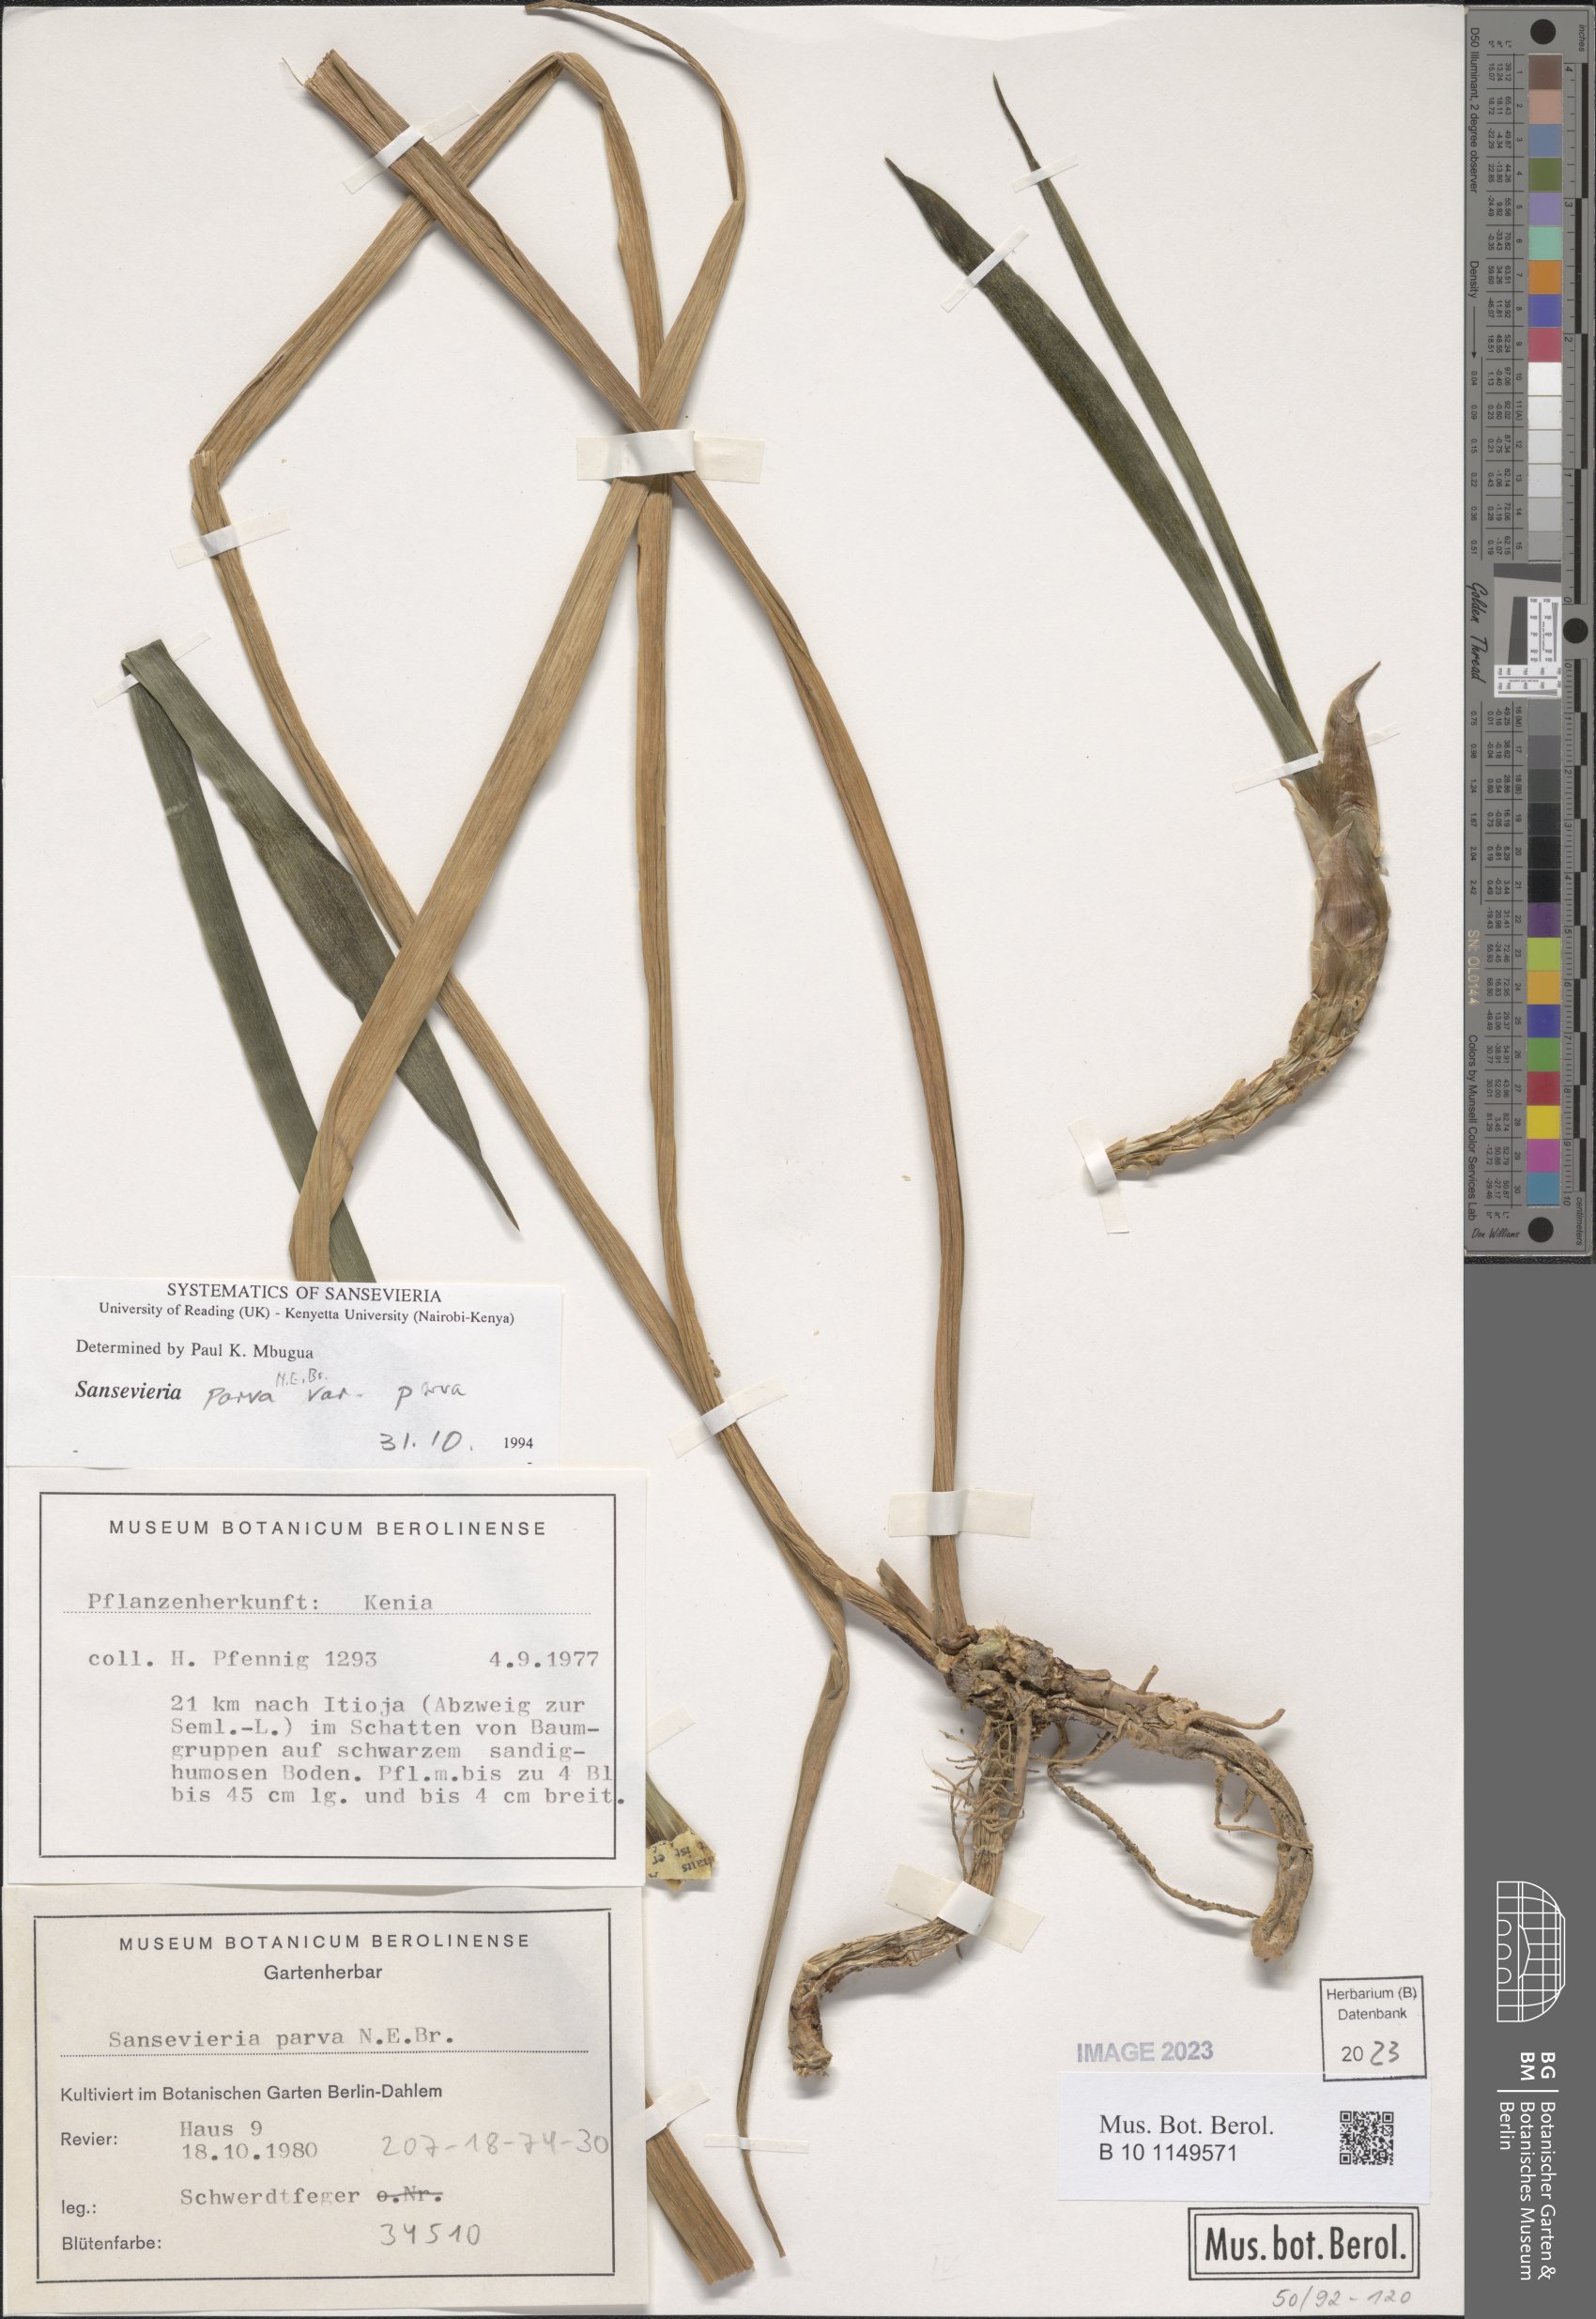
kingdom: Plantae
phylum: Tracheophyta
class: Liliopsida
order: Asparagales
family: Asparagaceae
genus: Dracaena
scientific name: Dracaena parva
